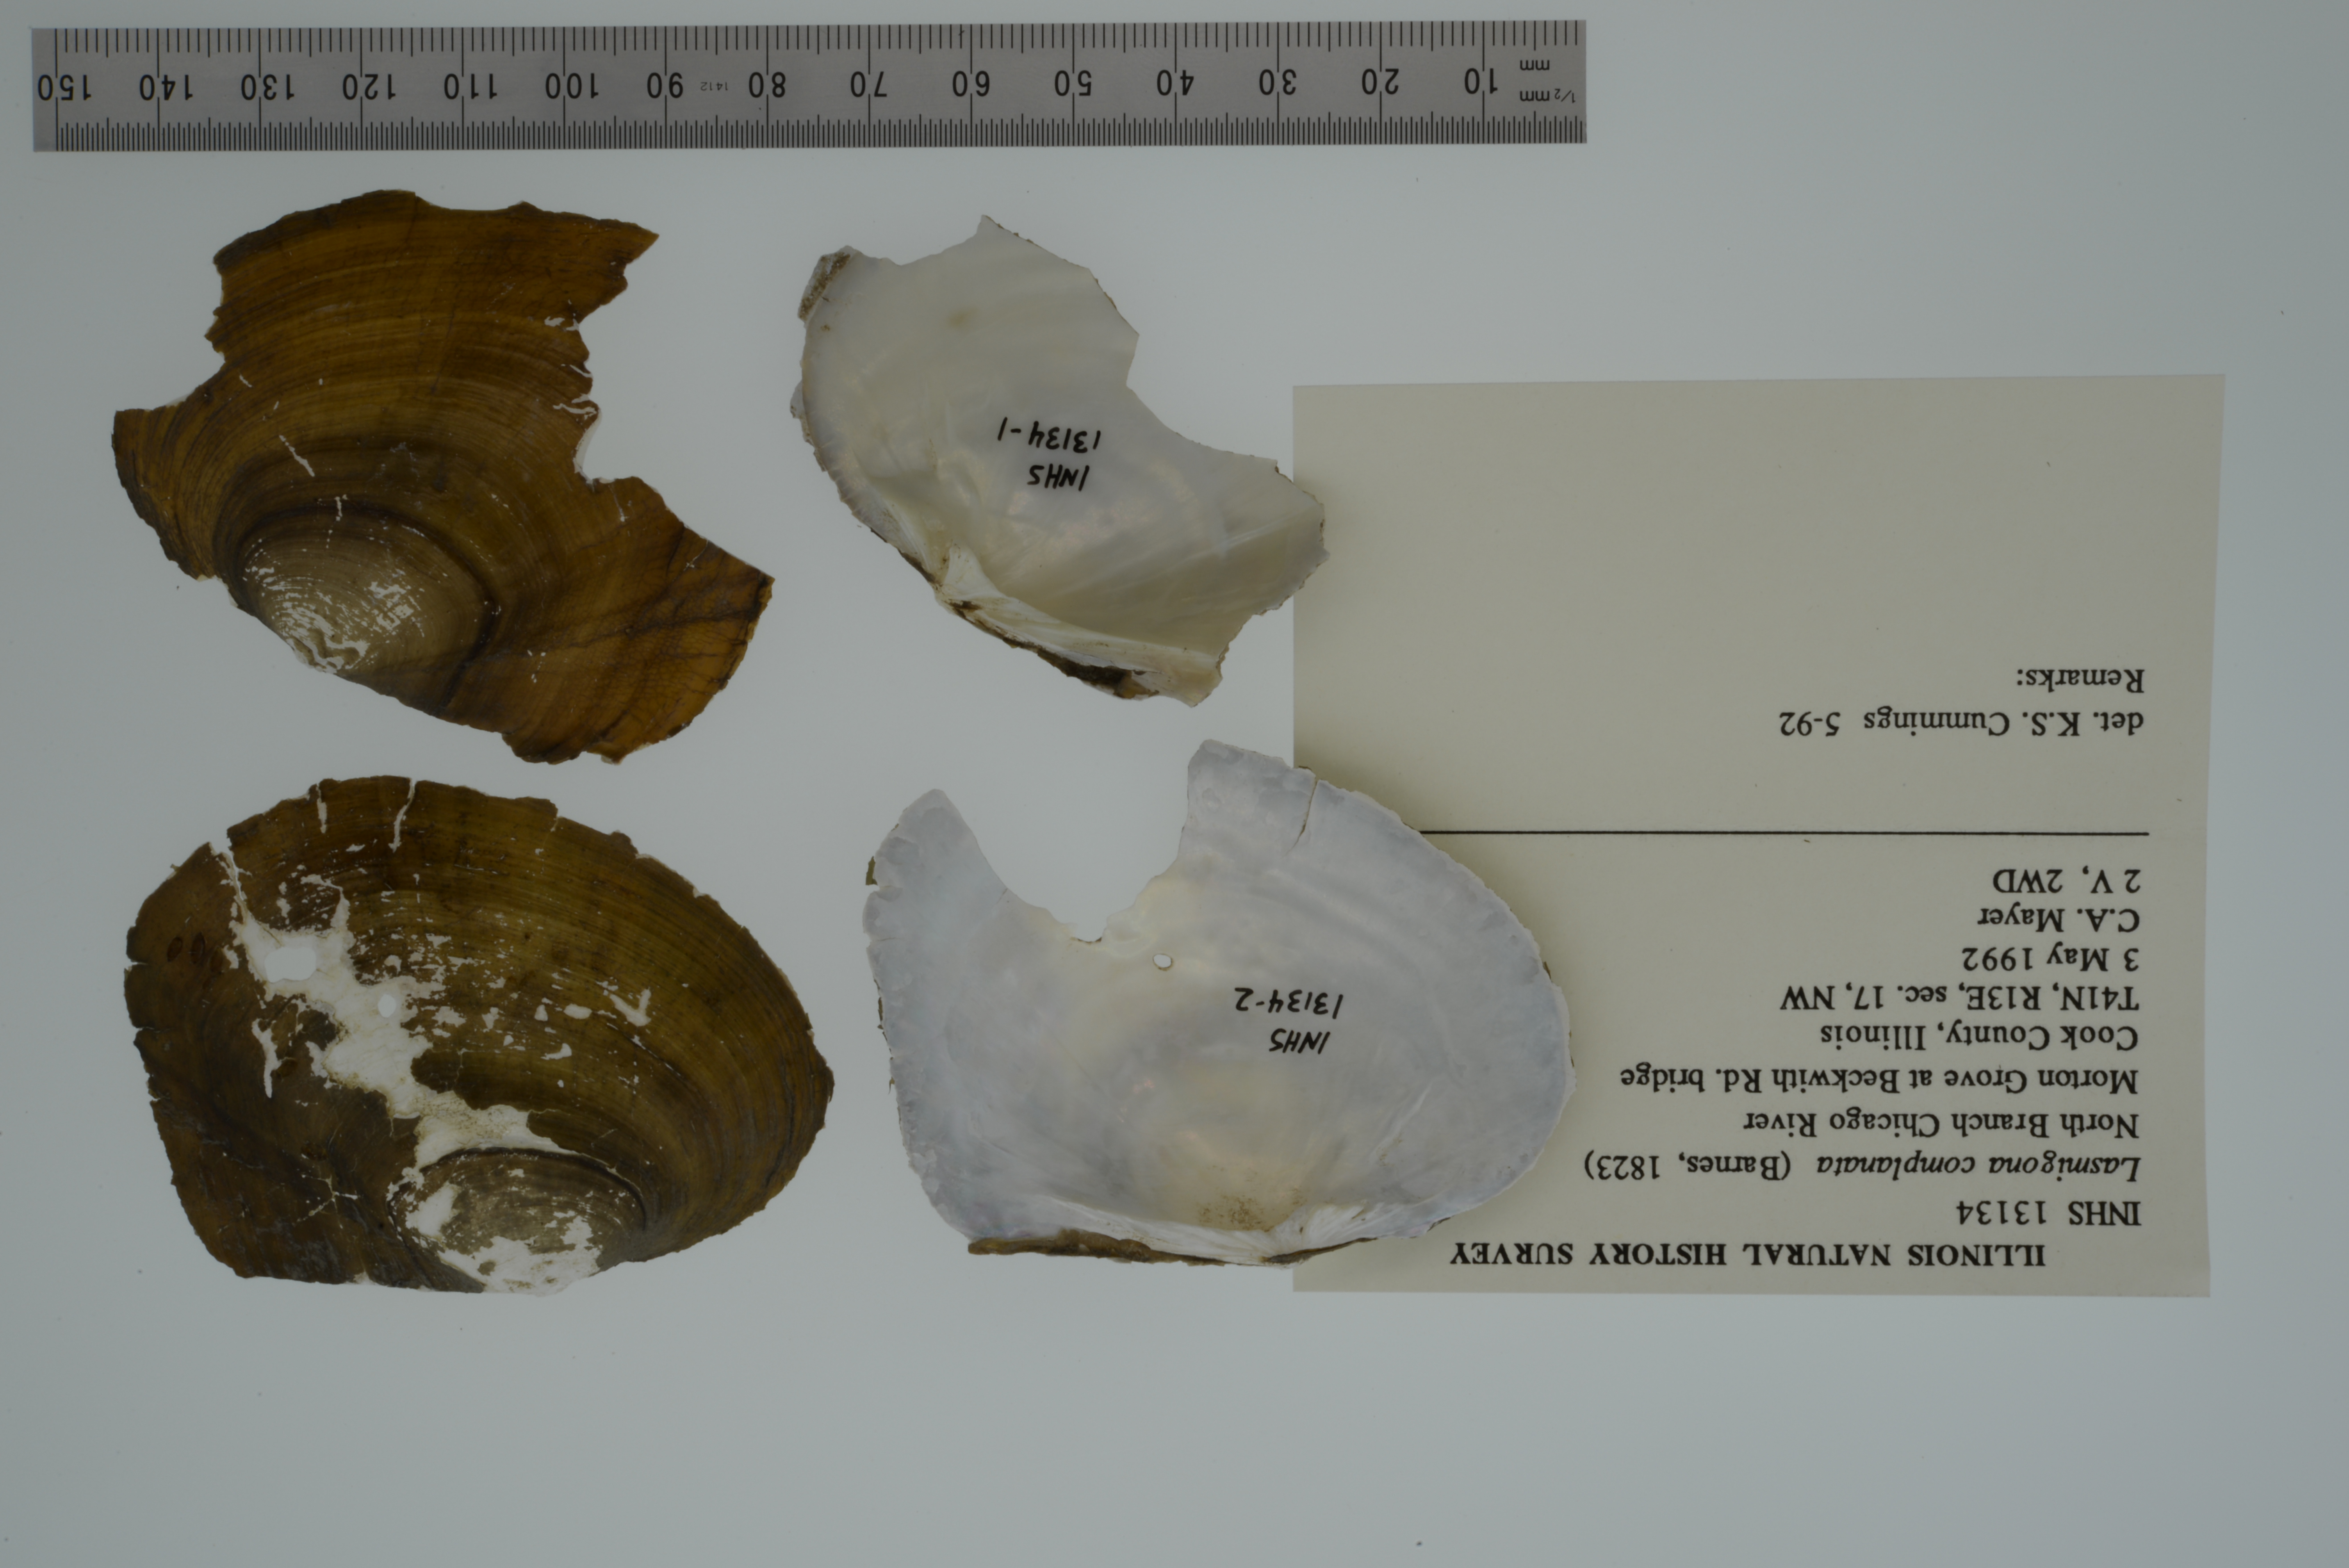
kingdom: Animalia
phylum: Mollusca
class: Bivalvia
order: Unionida
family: Unionidae
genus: Lasmigona
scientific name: Lasmigona complanata
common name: White heelsplitter
